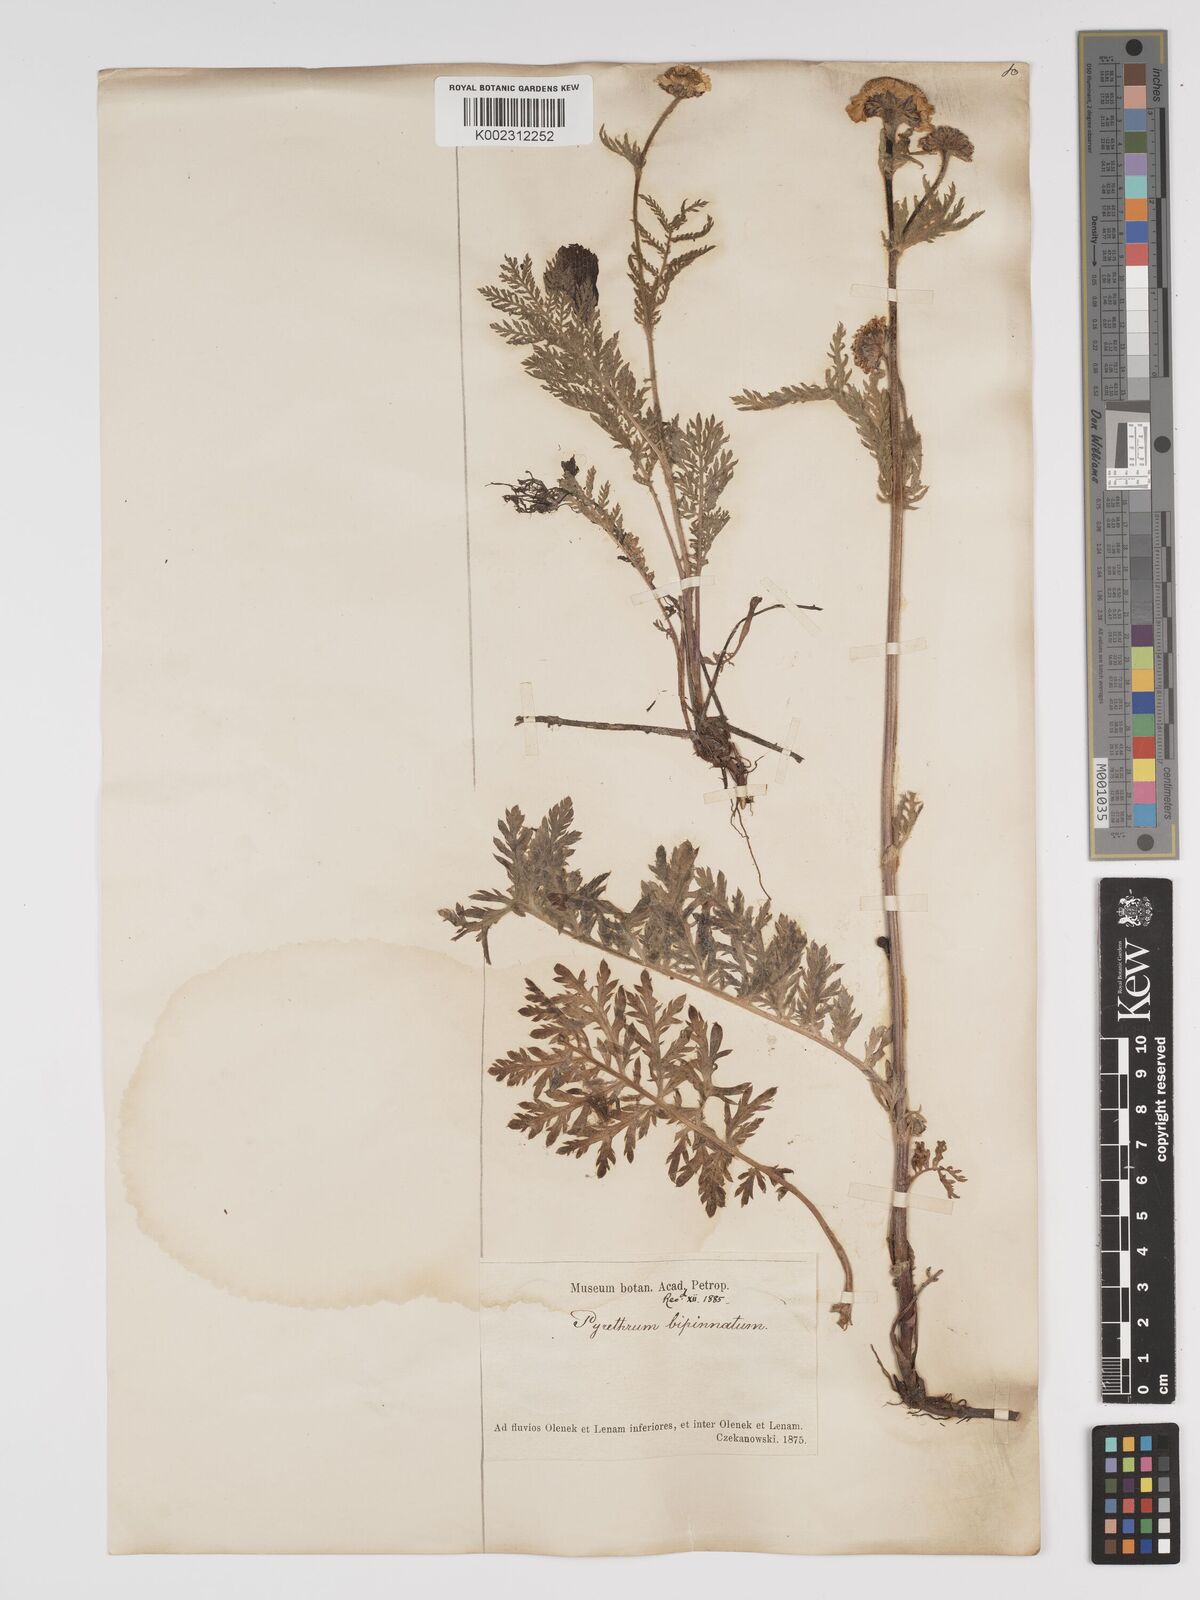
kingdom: Plantae
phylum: Tracheophyta
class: Magnoliopsida
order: Asterales
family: Asteraceae
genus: Tanacetum
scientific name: Tanacetum bipinnatum
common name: Dwarf tansy
